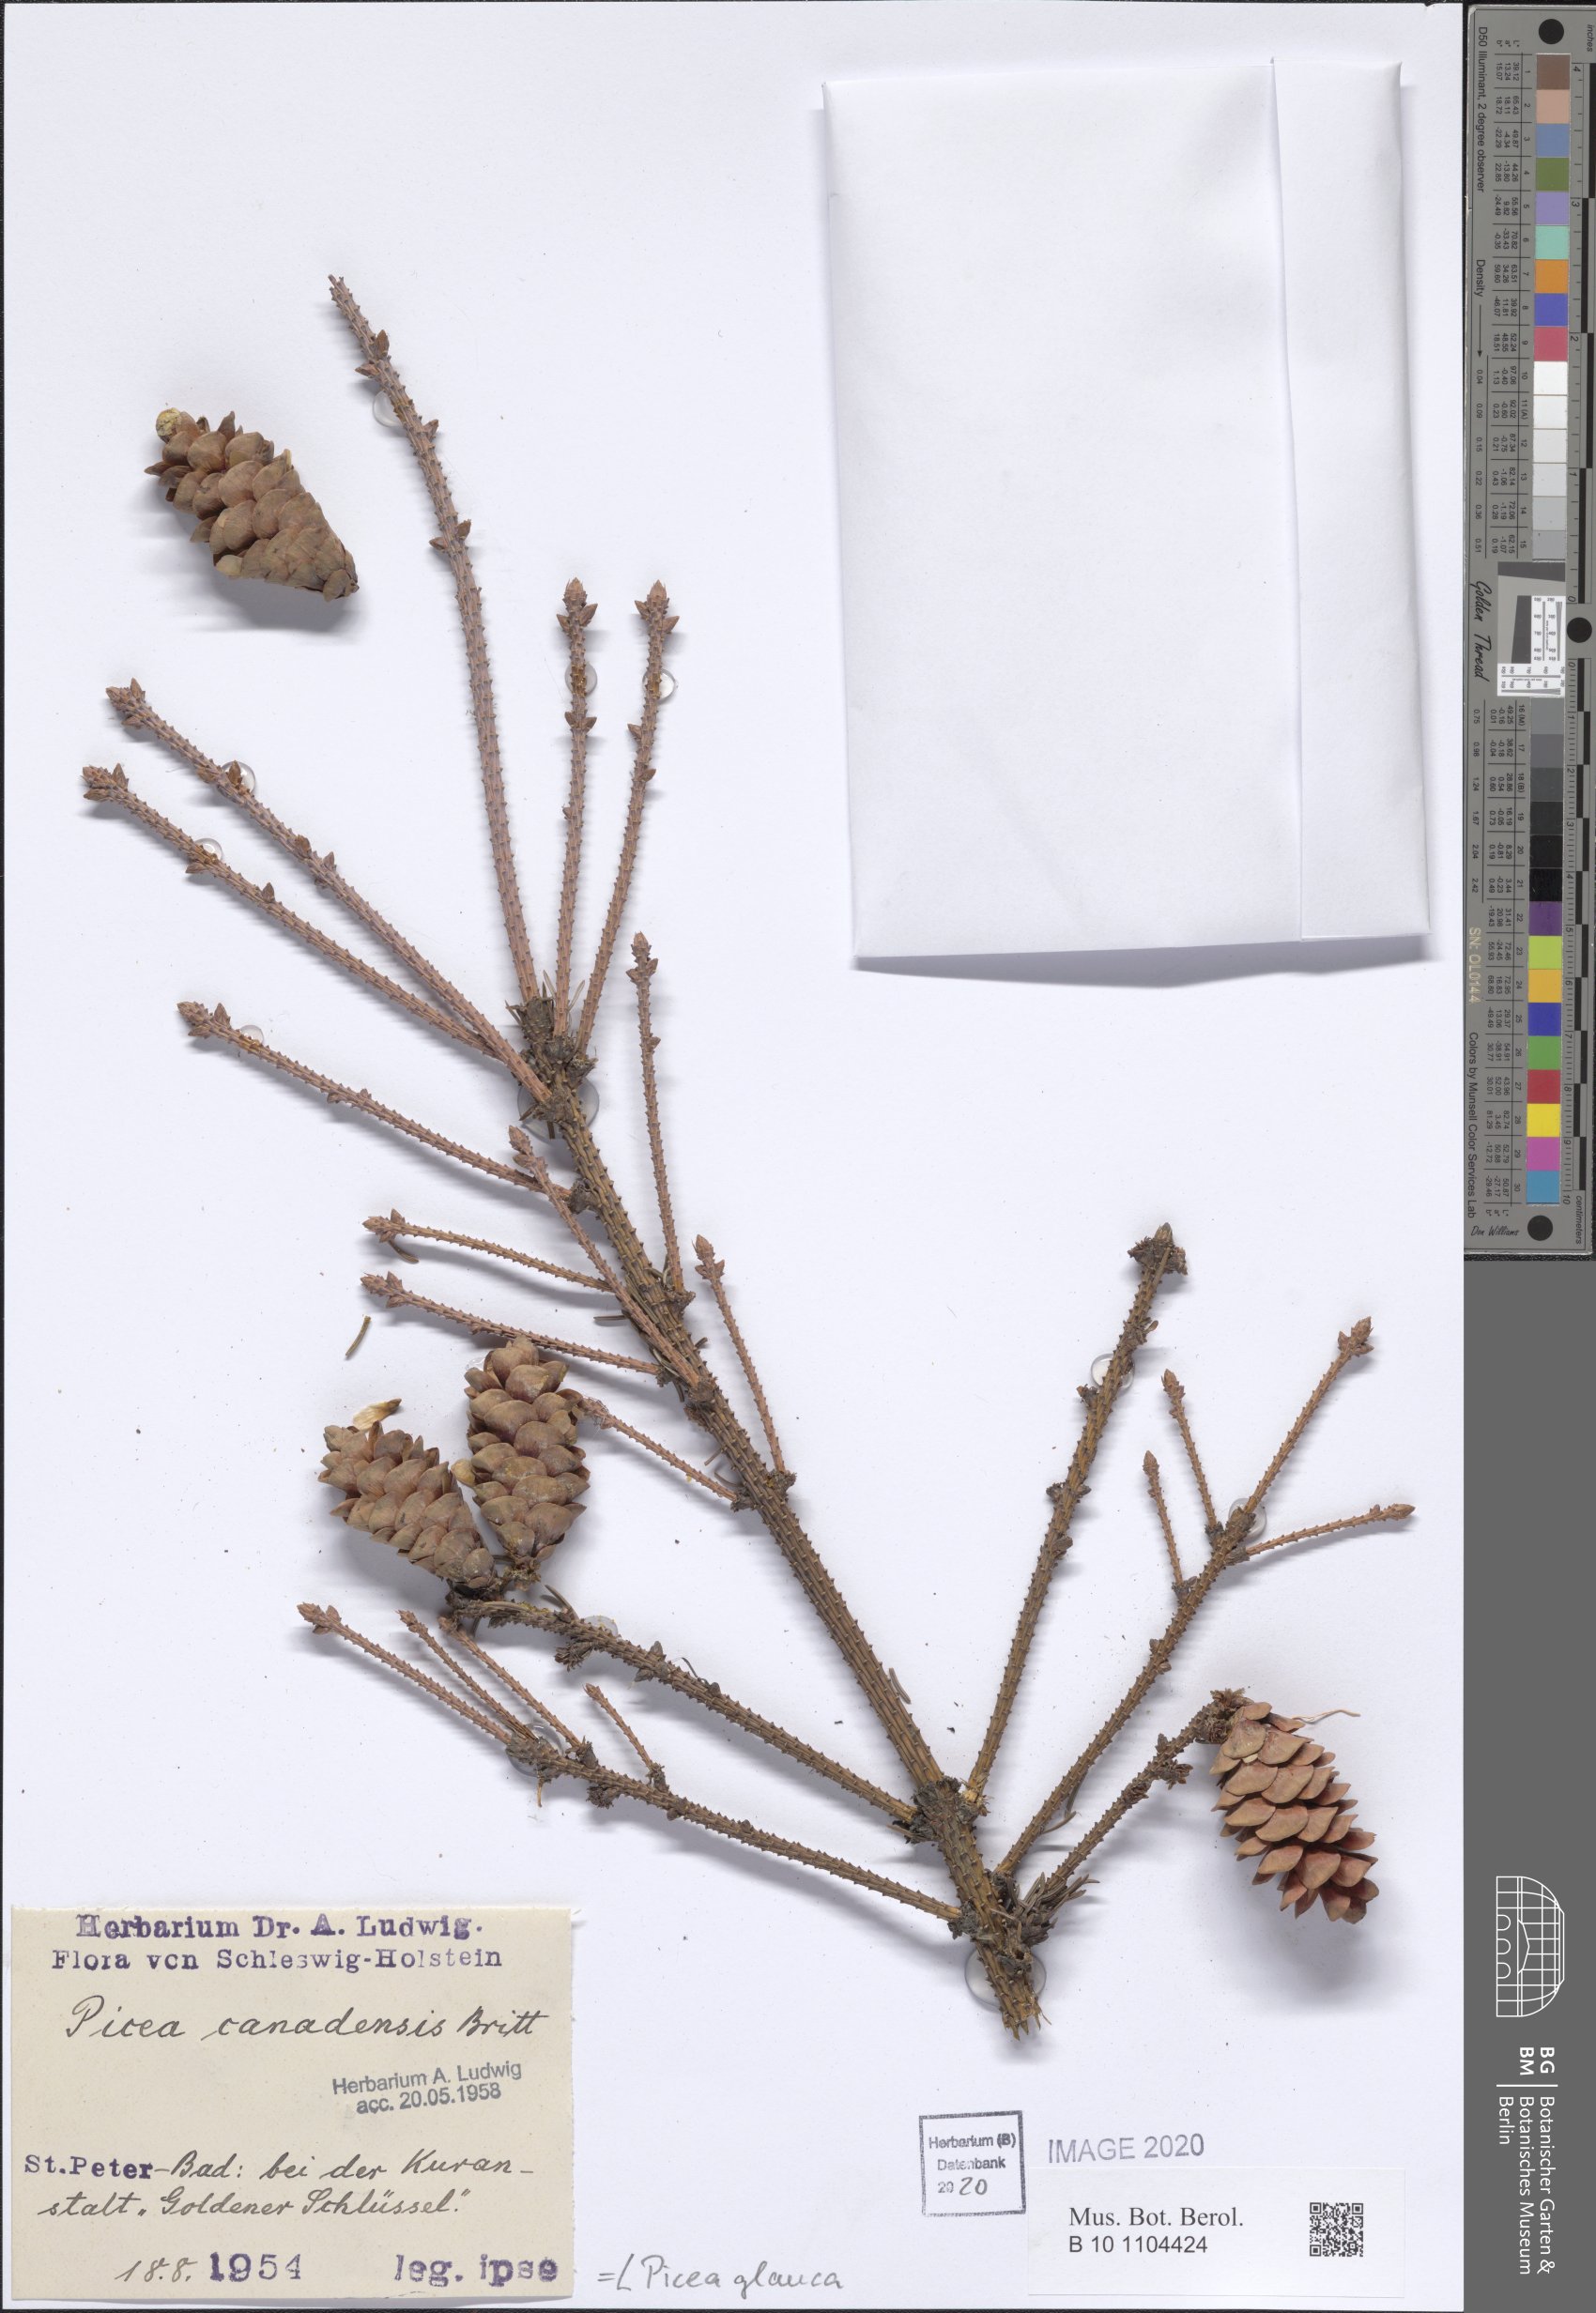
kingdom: Plantae
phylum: Tracheophyta
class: Pinopsida
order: Pinales
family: Pinaceae
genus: Picea
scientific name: Picea glauca
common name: White spruce
